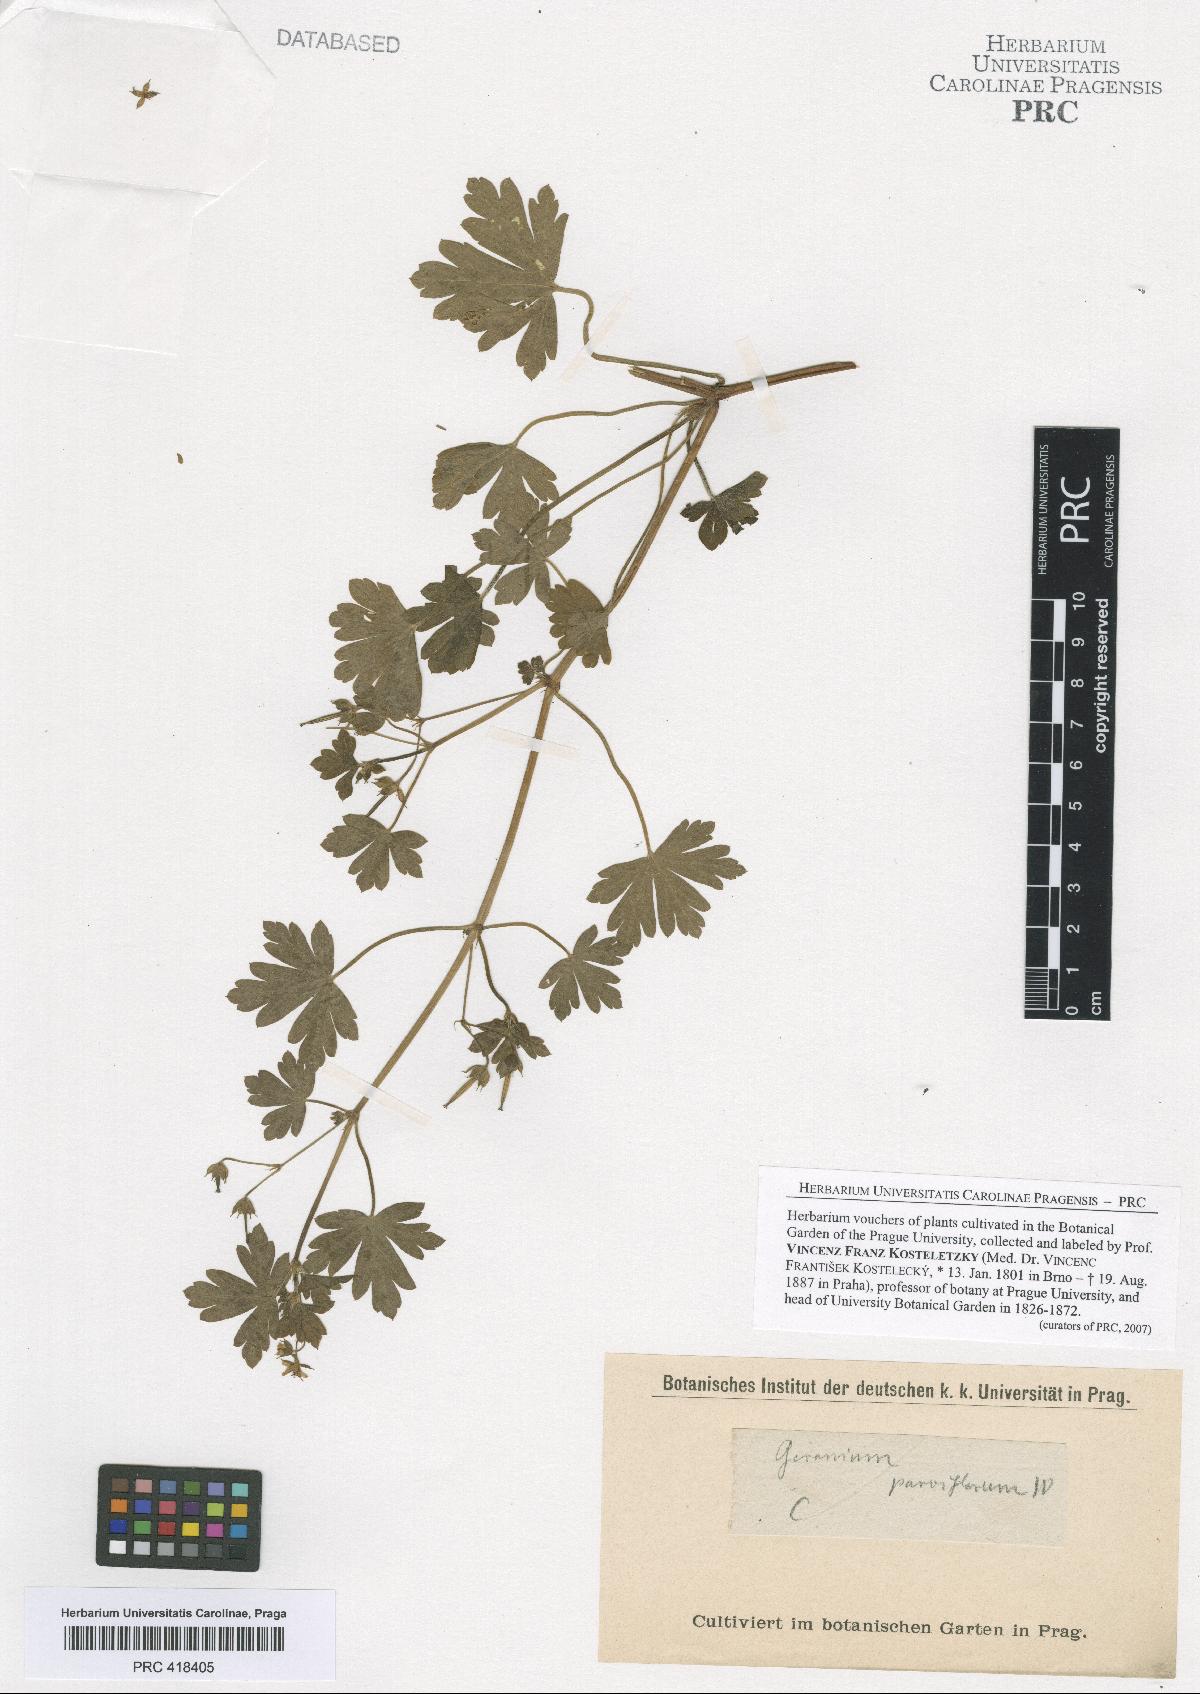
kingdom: Plantae
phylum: Tracheophyta
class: Magnoliopsida
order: Geraniales
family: Geraniaceae
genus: Geranium
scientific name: Geranium nepalense
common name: Nepalese crane's-bill
